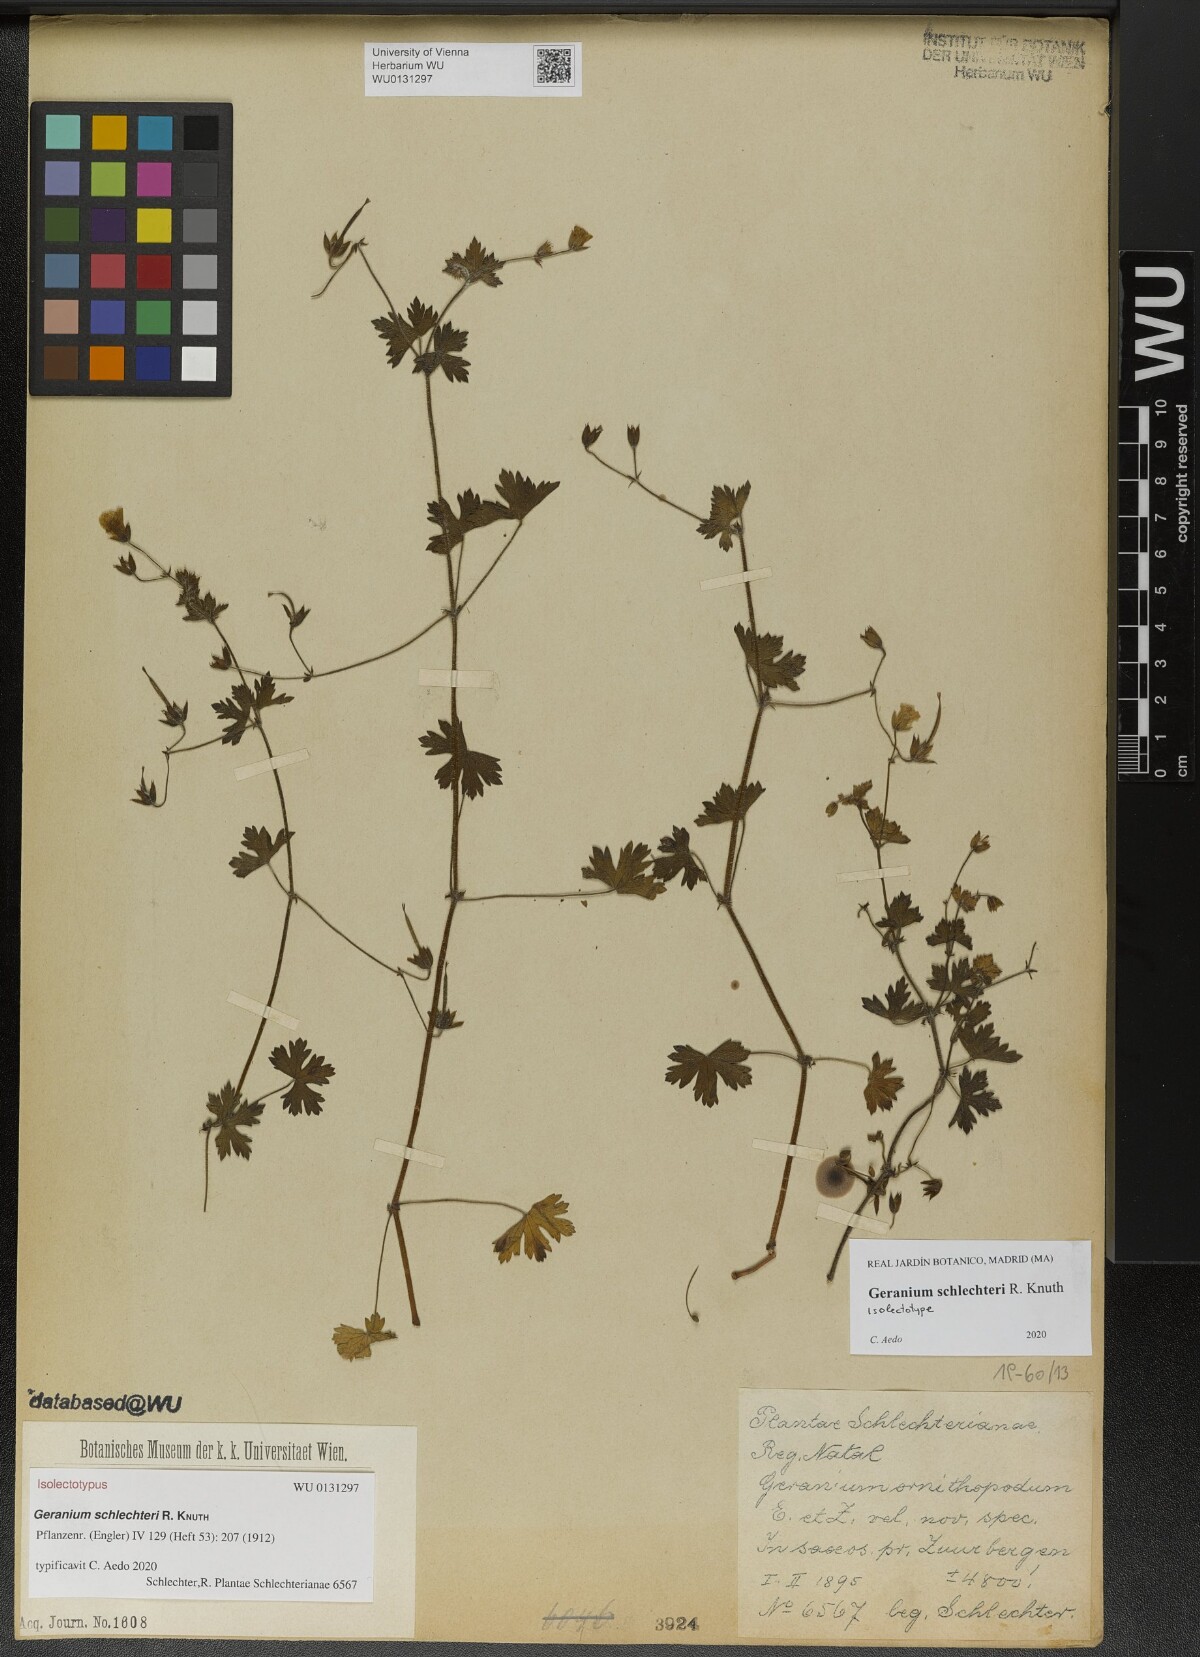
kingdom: Plantae
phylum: Tracheophyta
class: Magnoliopsida
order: Geraniales
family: Geraniaceae
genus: Geranium
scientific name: Geranium schlechteri
